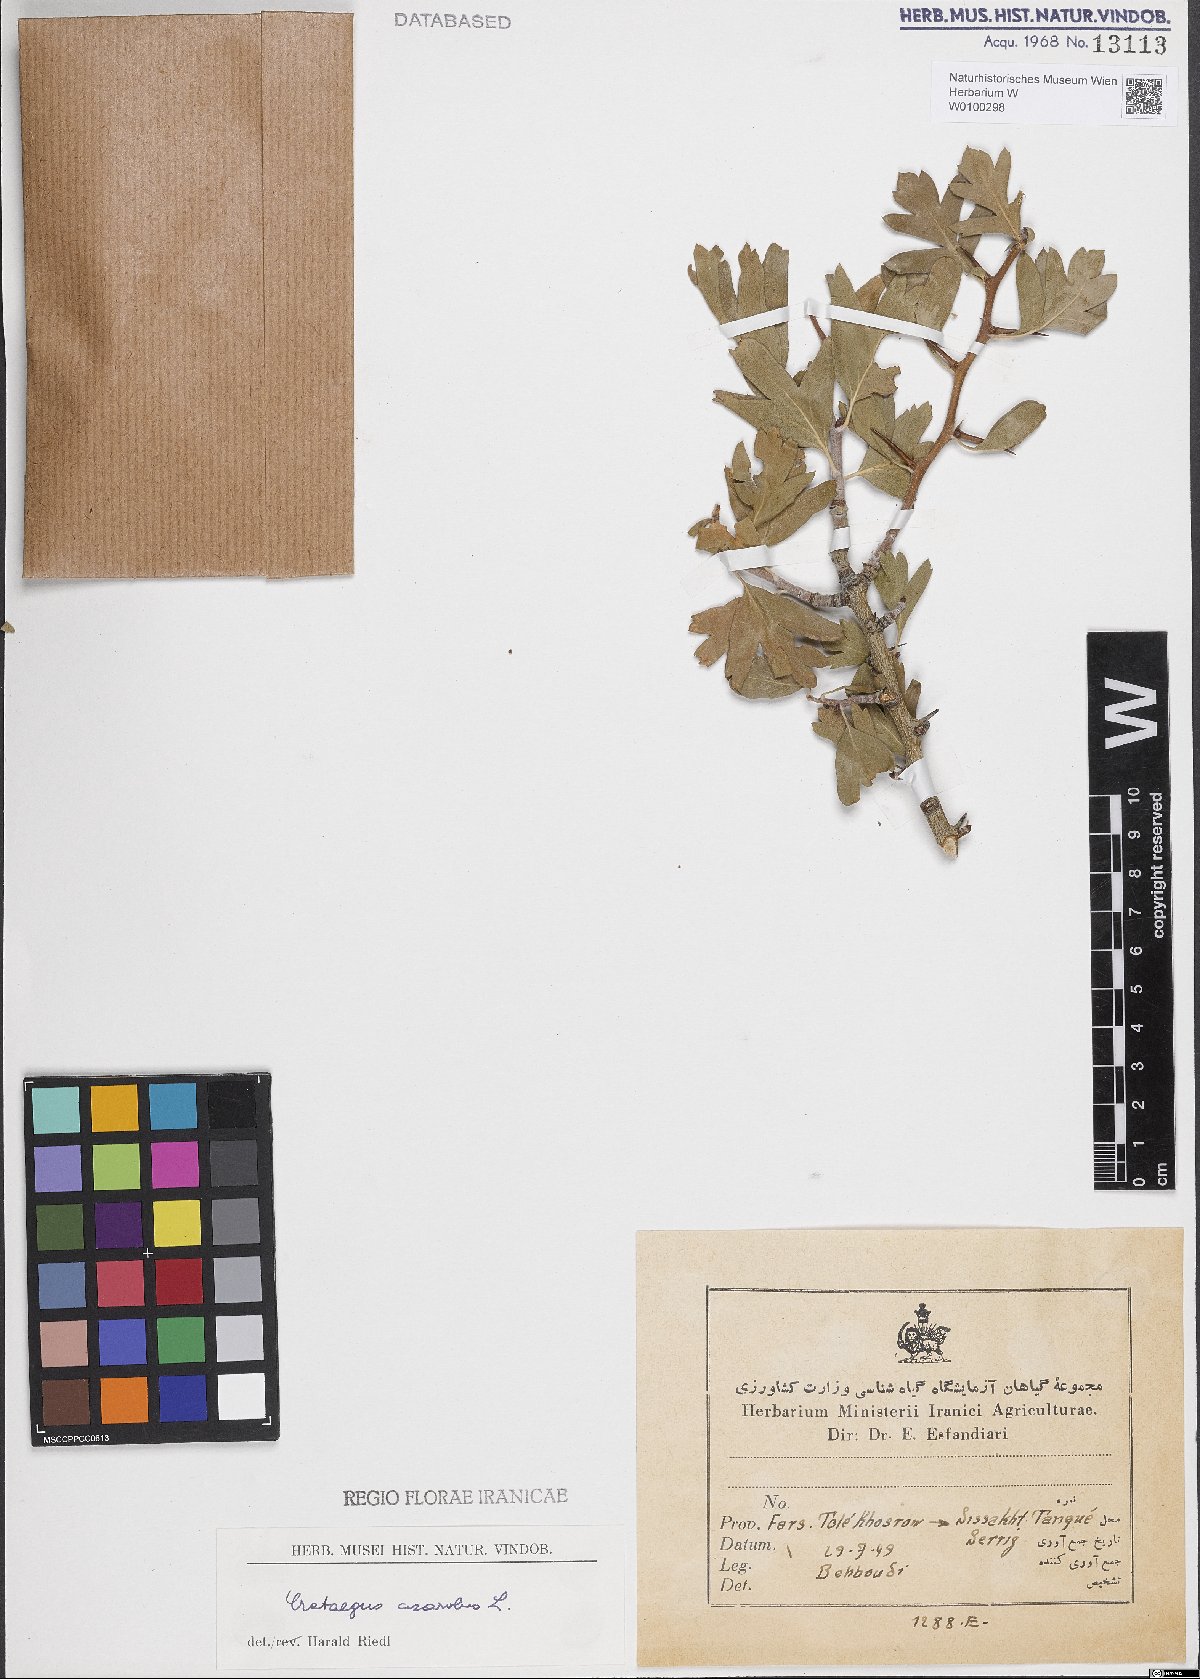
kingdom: Plantae
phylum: Tracheophyta
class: Magnoliopsida
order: Rosales
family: Rosaceae
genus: Crataegus
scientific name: Crataegus azarolus
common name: Azarole
